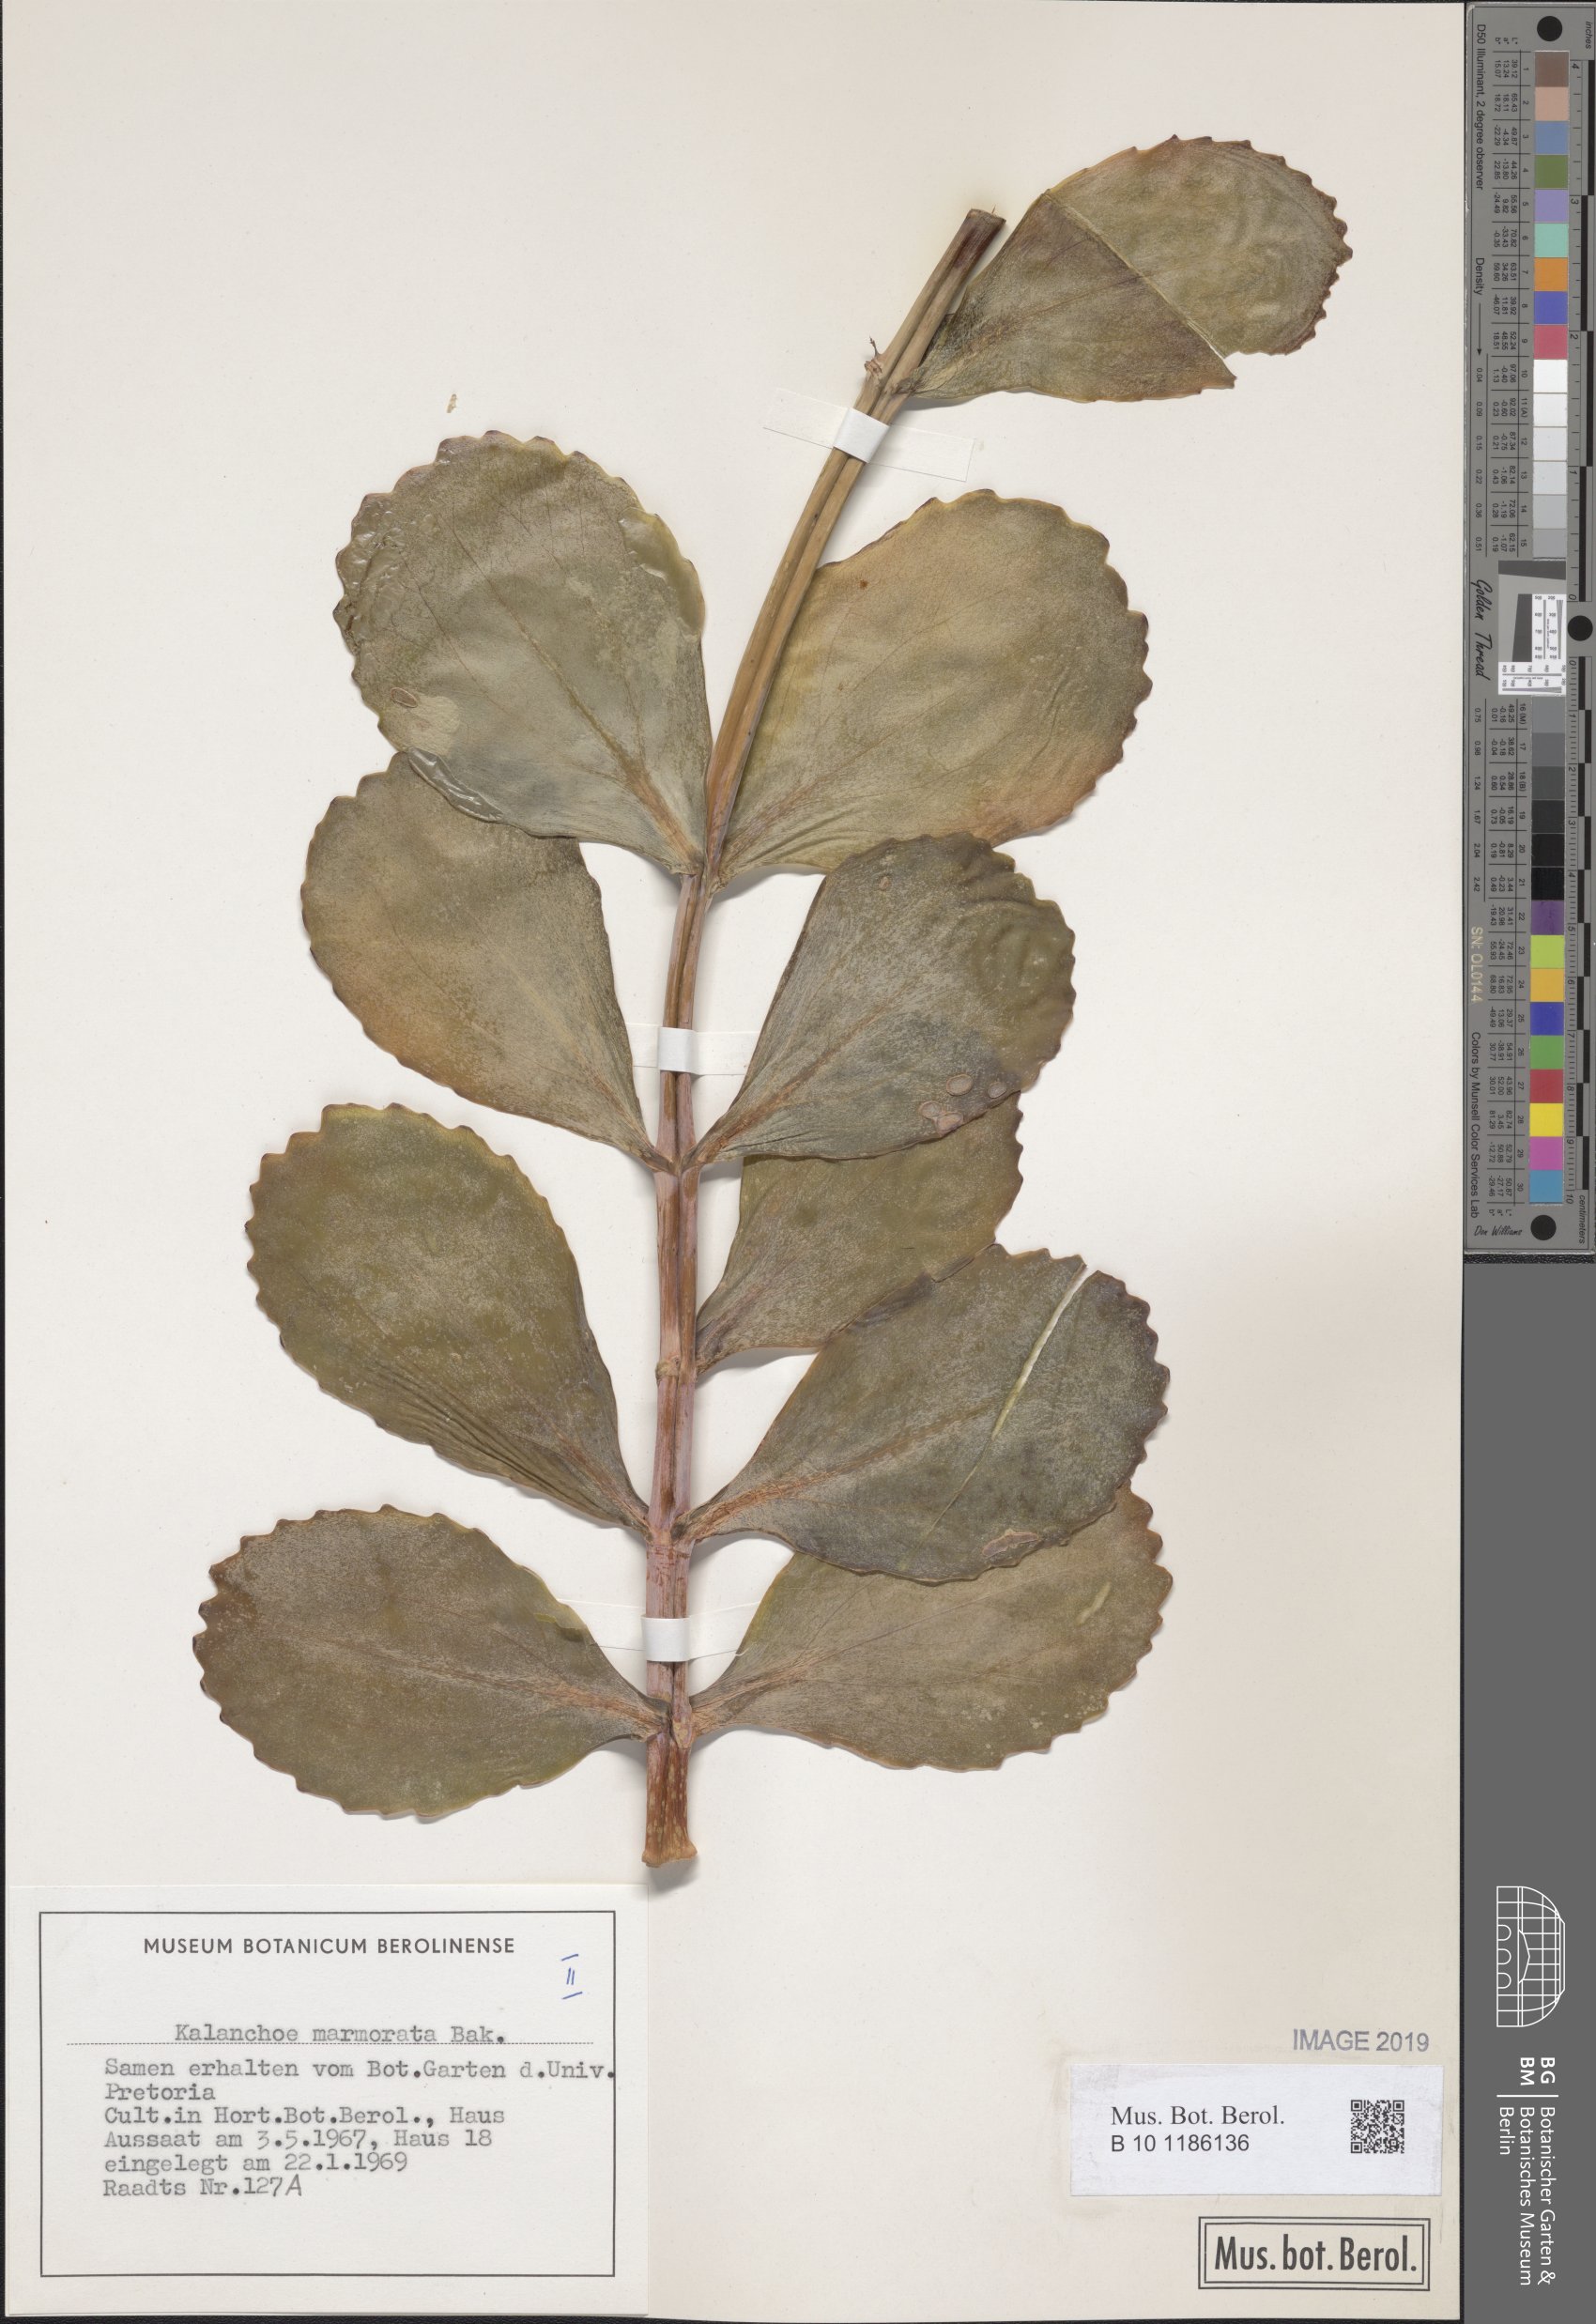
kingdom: Plantae
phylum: Tracheophyta
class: Magnoliopsida
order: Saxifragales
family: Crassulaceae
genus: Kalanchoe
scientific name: Kalanchoe marmorata
